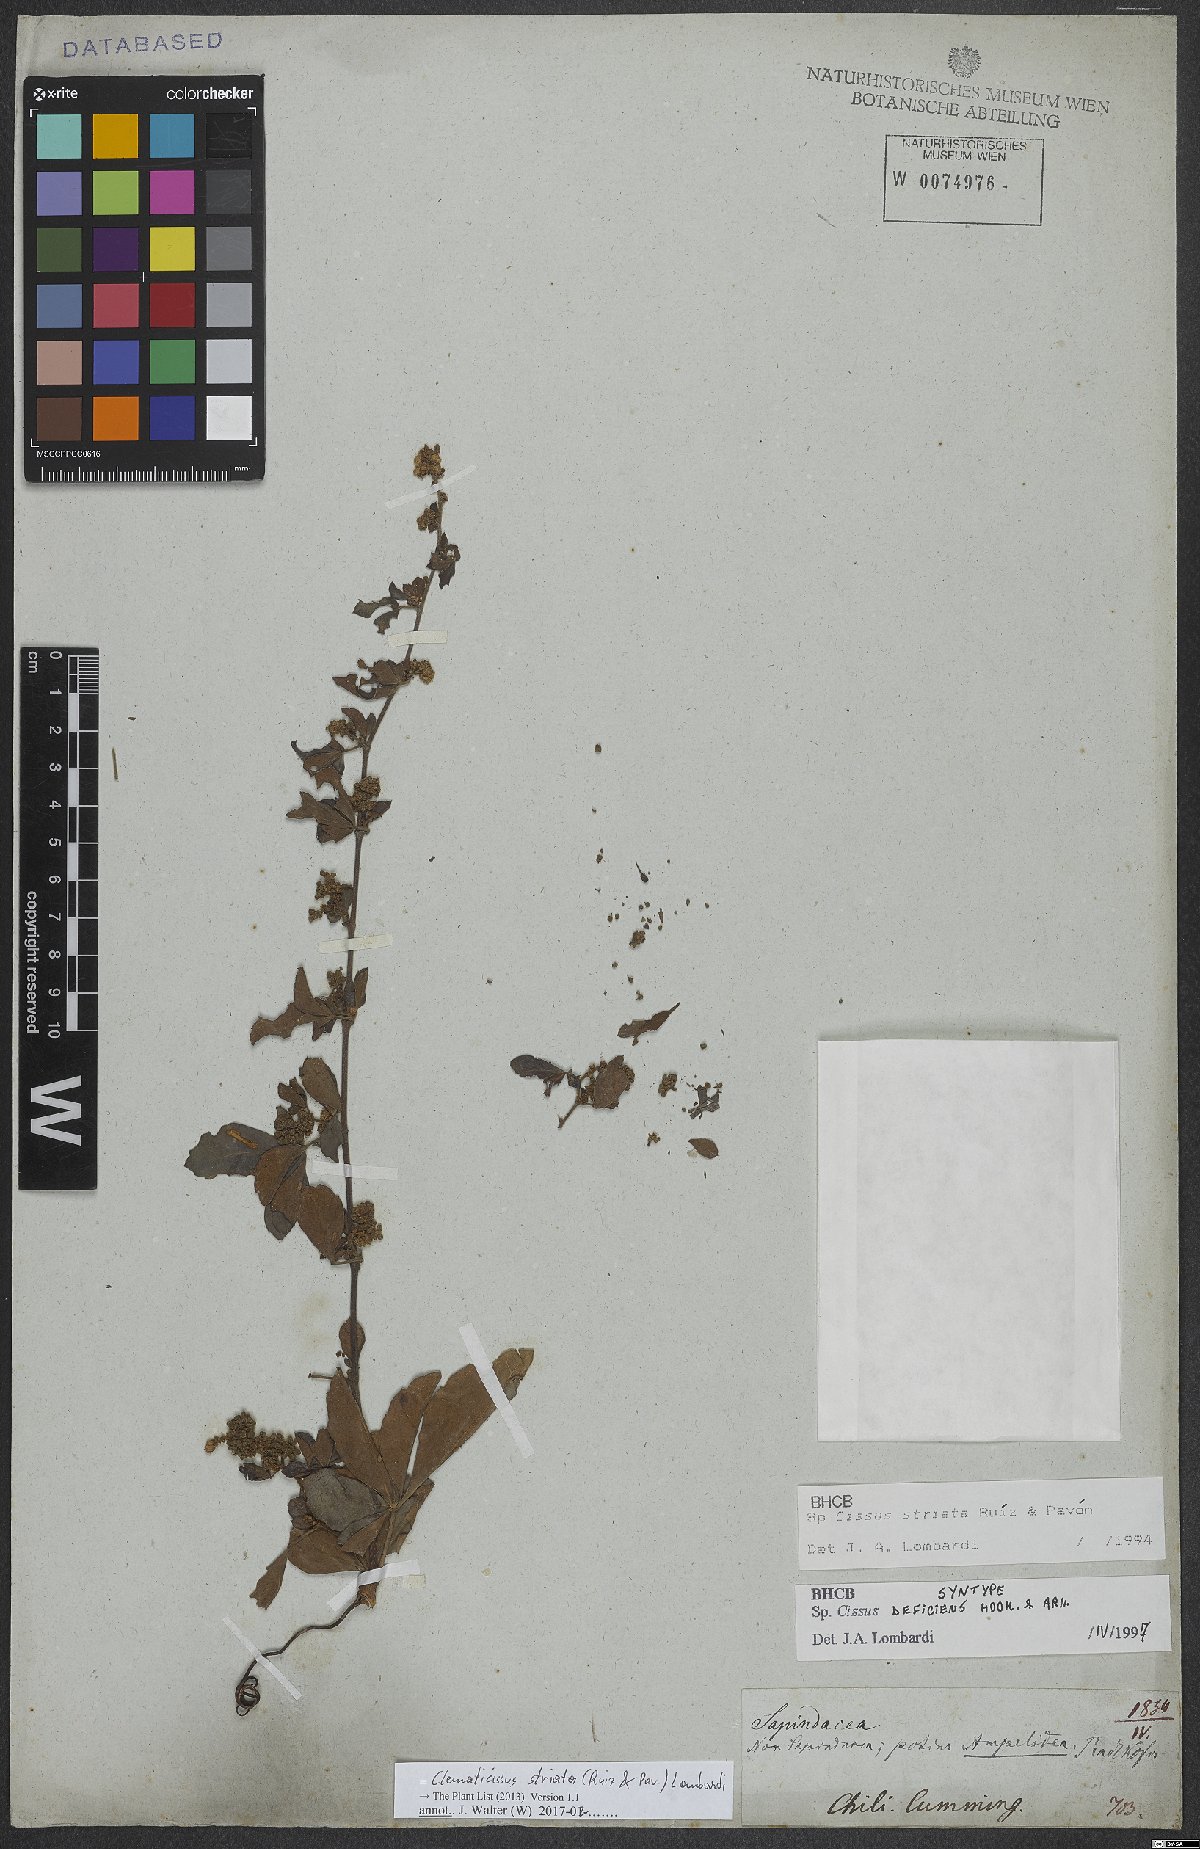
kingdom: Plantae
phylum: Tracheophyta
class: Magnoliopsida
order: Vitales
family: Vitaceae
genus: Clematicissus
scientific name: Clematicissus striata
